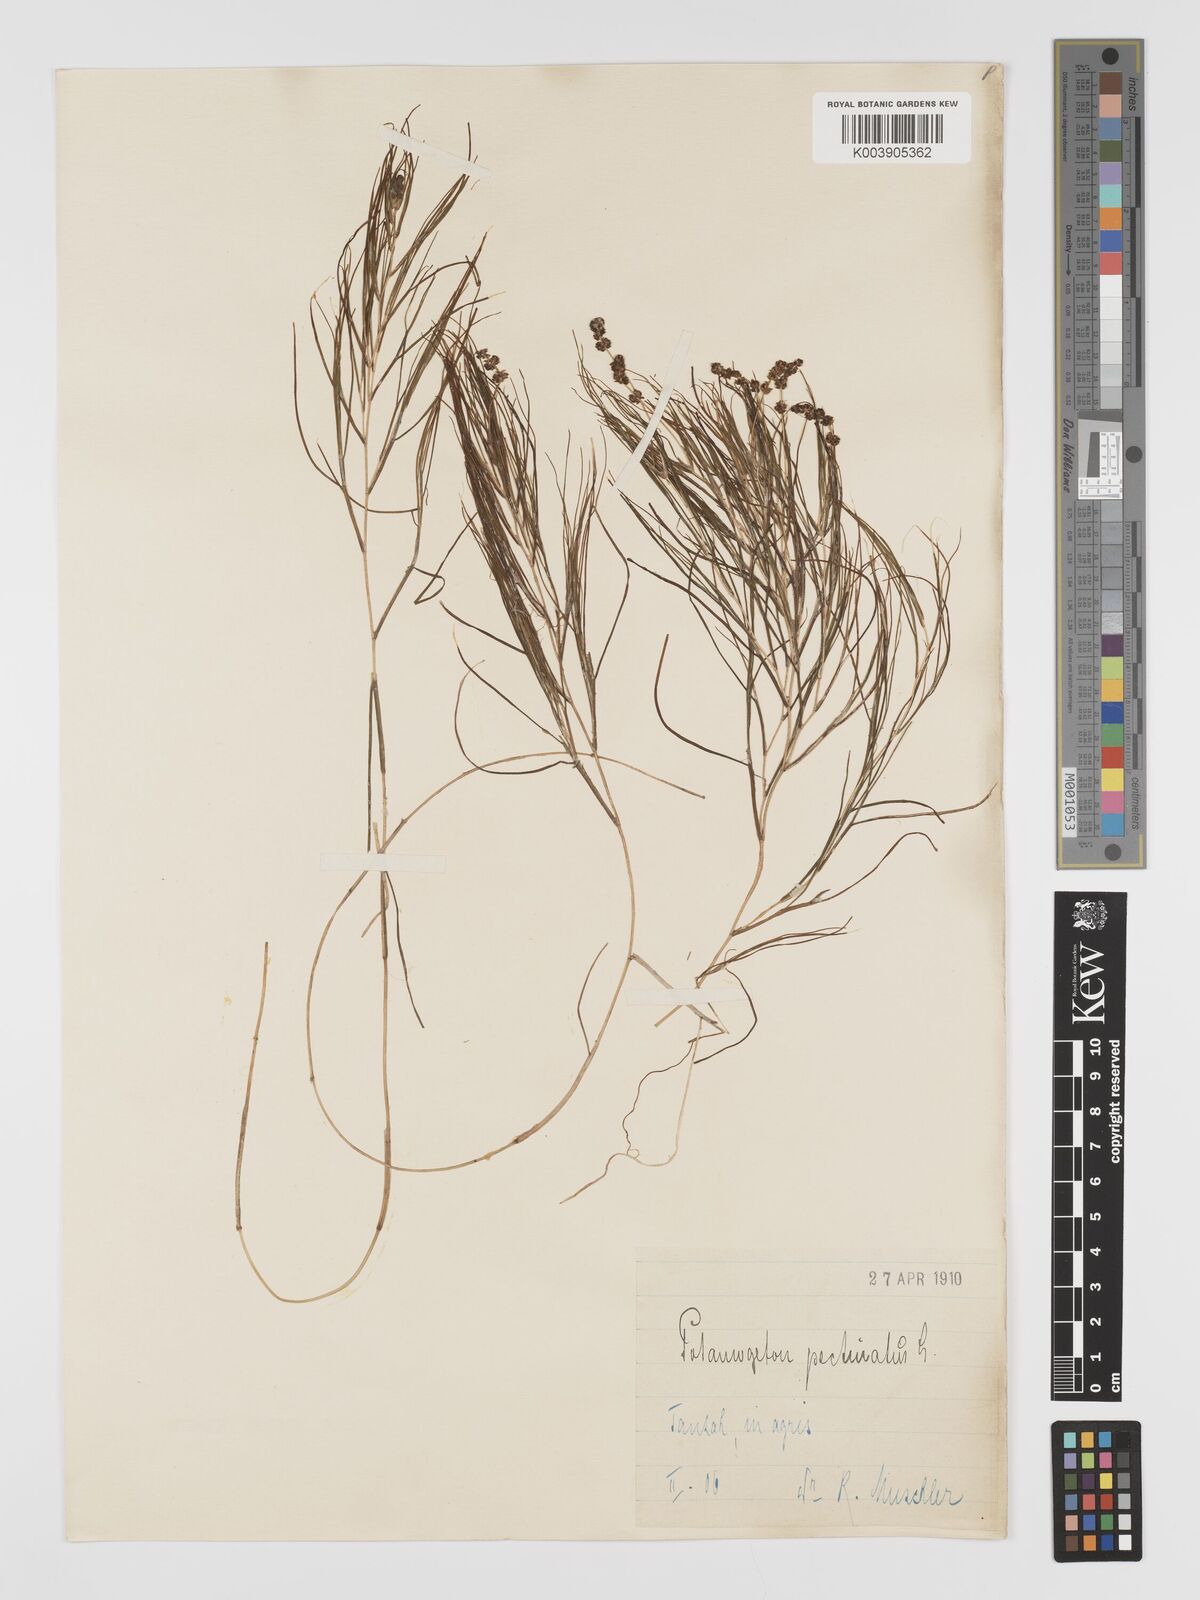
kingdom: Plantae
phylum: Tracheophyta
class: Liliopsida
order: Alismatales
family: Potamogetonaceae
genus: Stuckenia
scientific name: Stuckenia pectinata
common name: Sago pondweed
